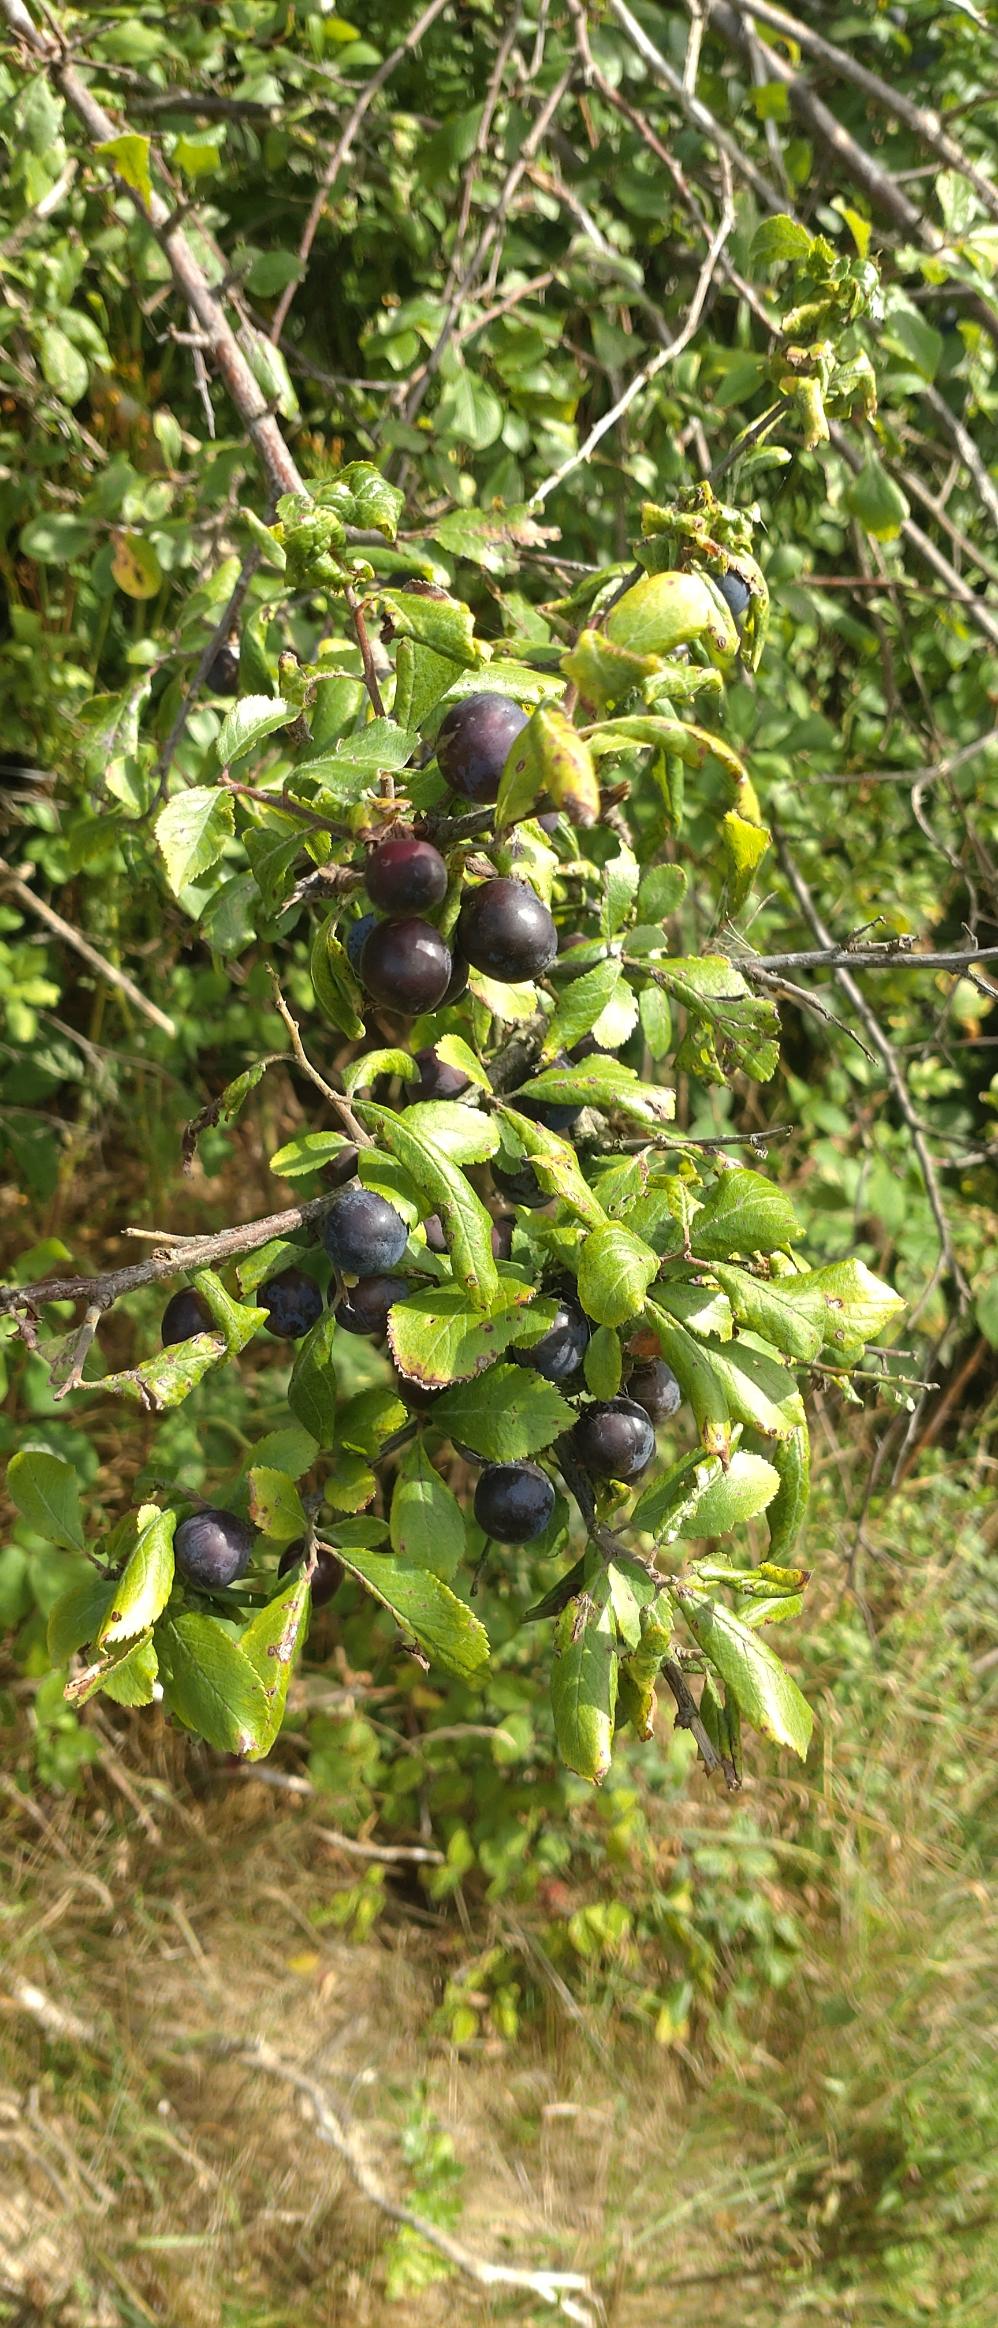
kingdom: Plantae
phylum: Tracheophyta
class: Magnoliopsida
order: Rosales
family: Rosaceae
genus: Prunus
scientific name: Prunus spinosa
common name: Slåen
